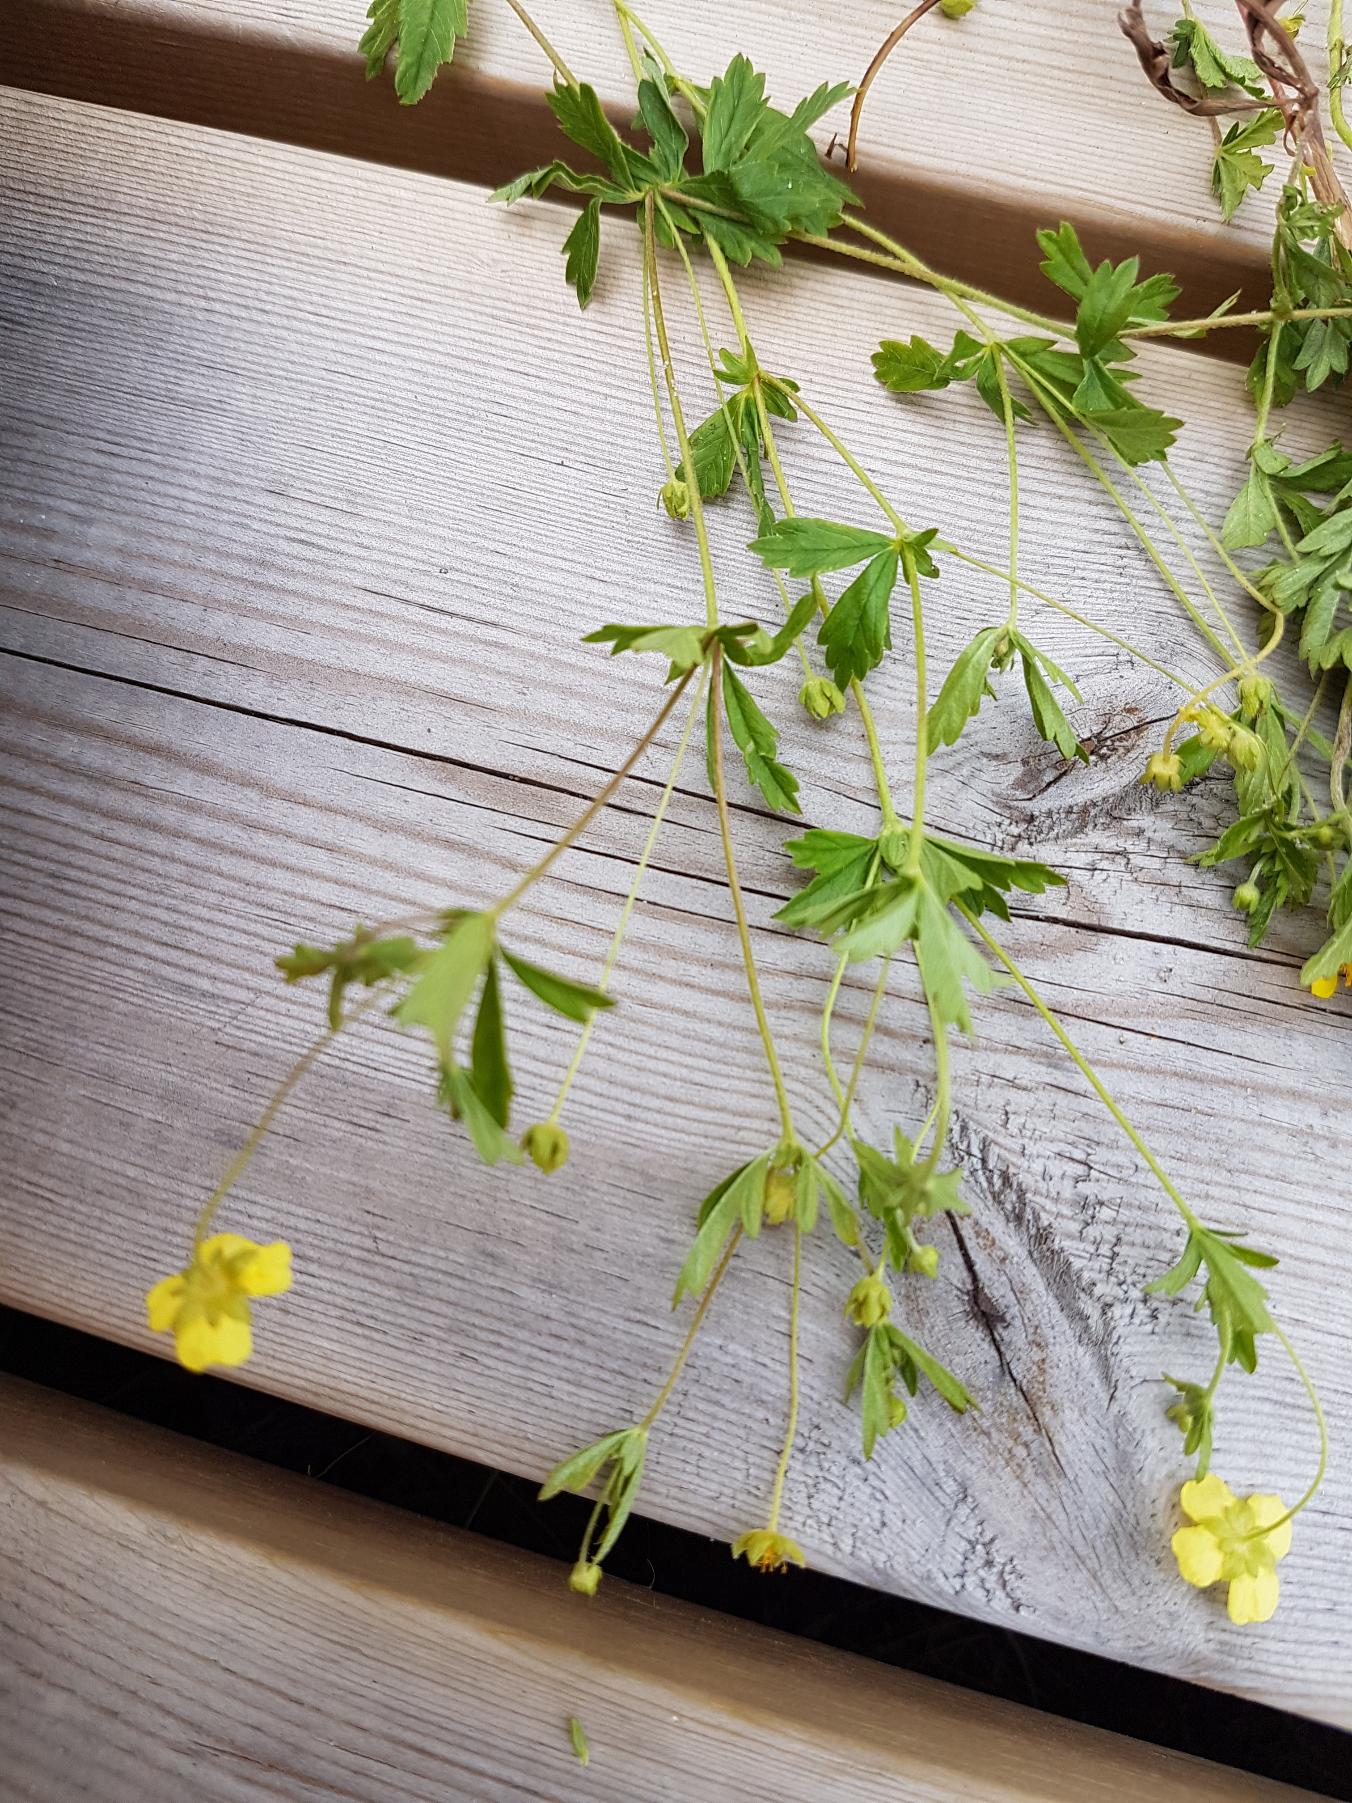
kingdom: Plantae
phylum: Tracheophyta
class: Magnoliopsida
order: Rosales
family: Rosaceae
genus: Potentilla
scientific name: Potentilla erecta
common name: Tormentil
